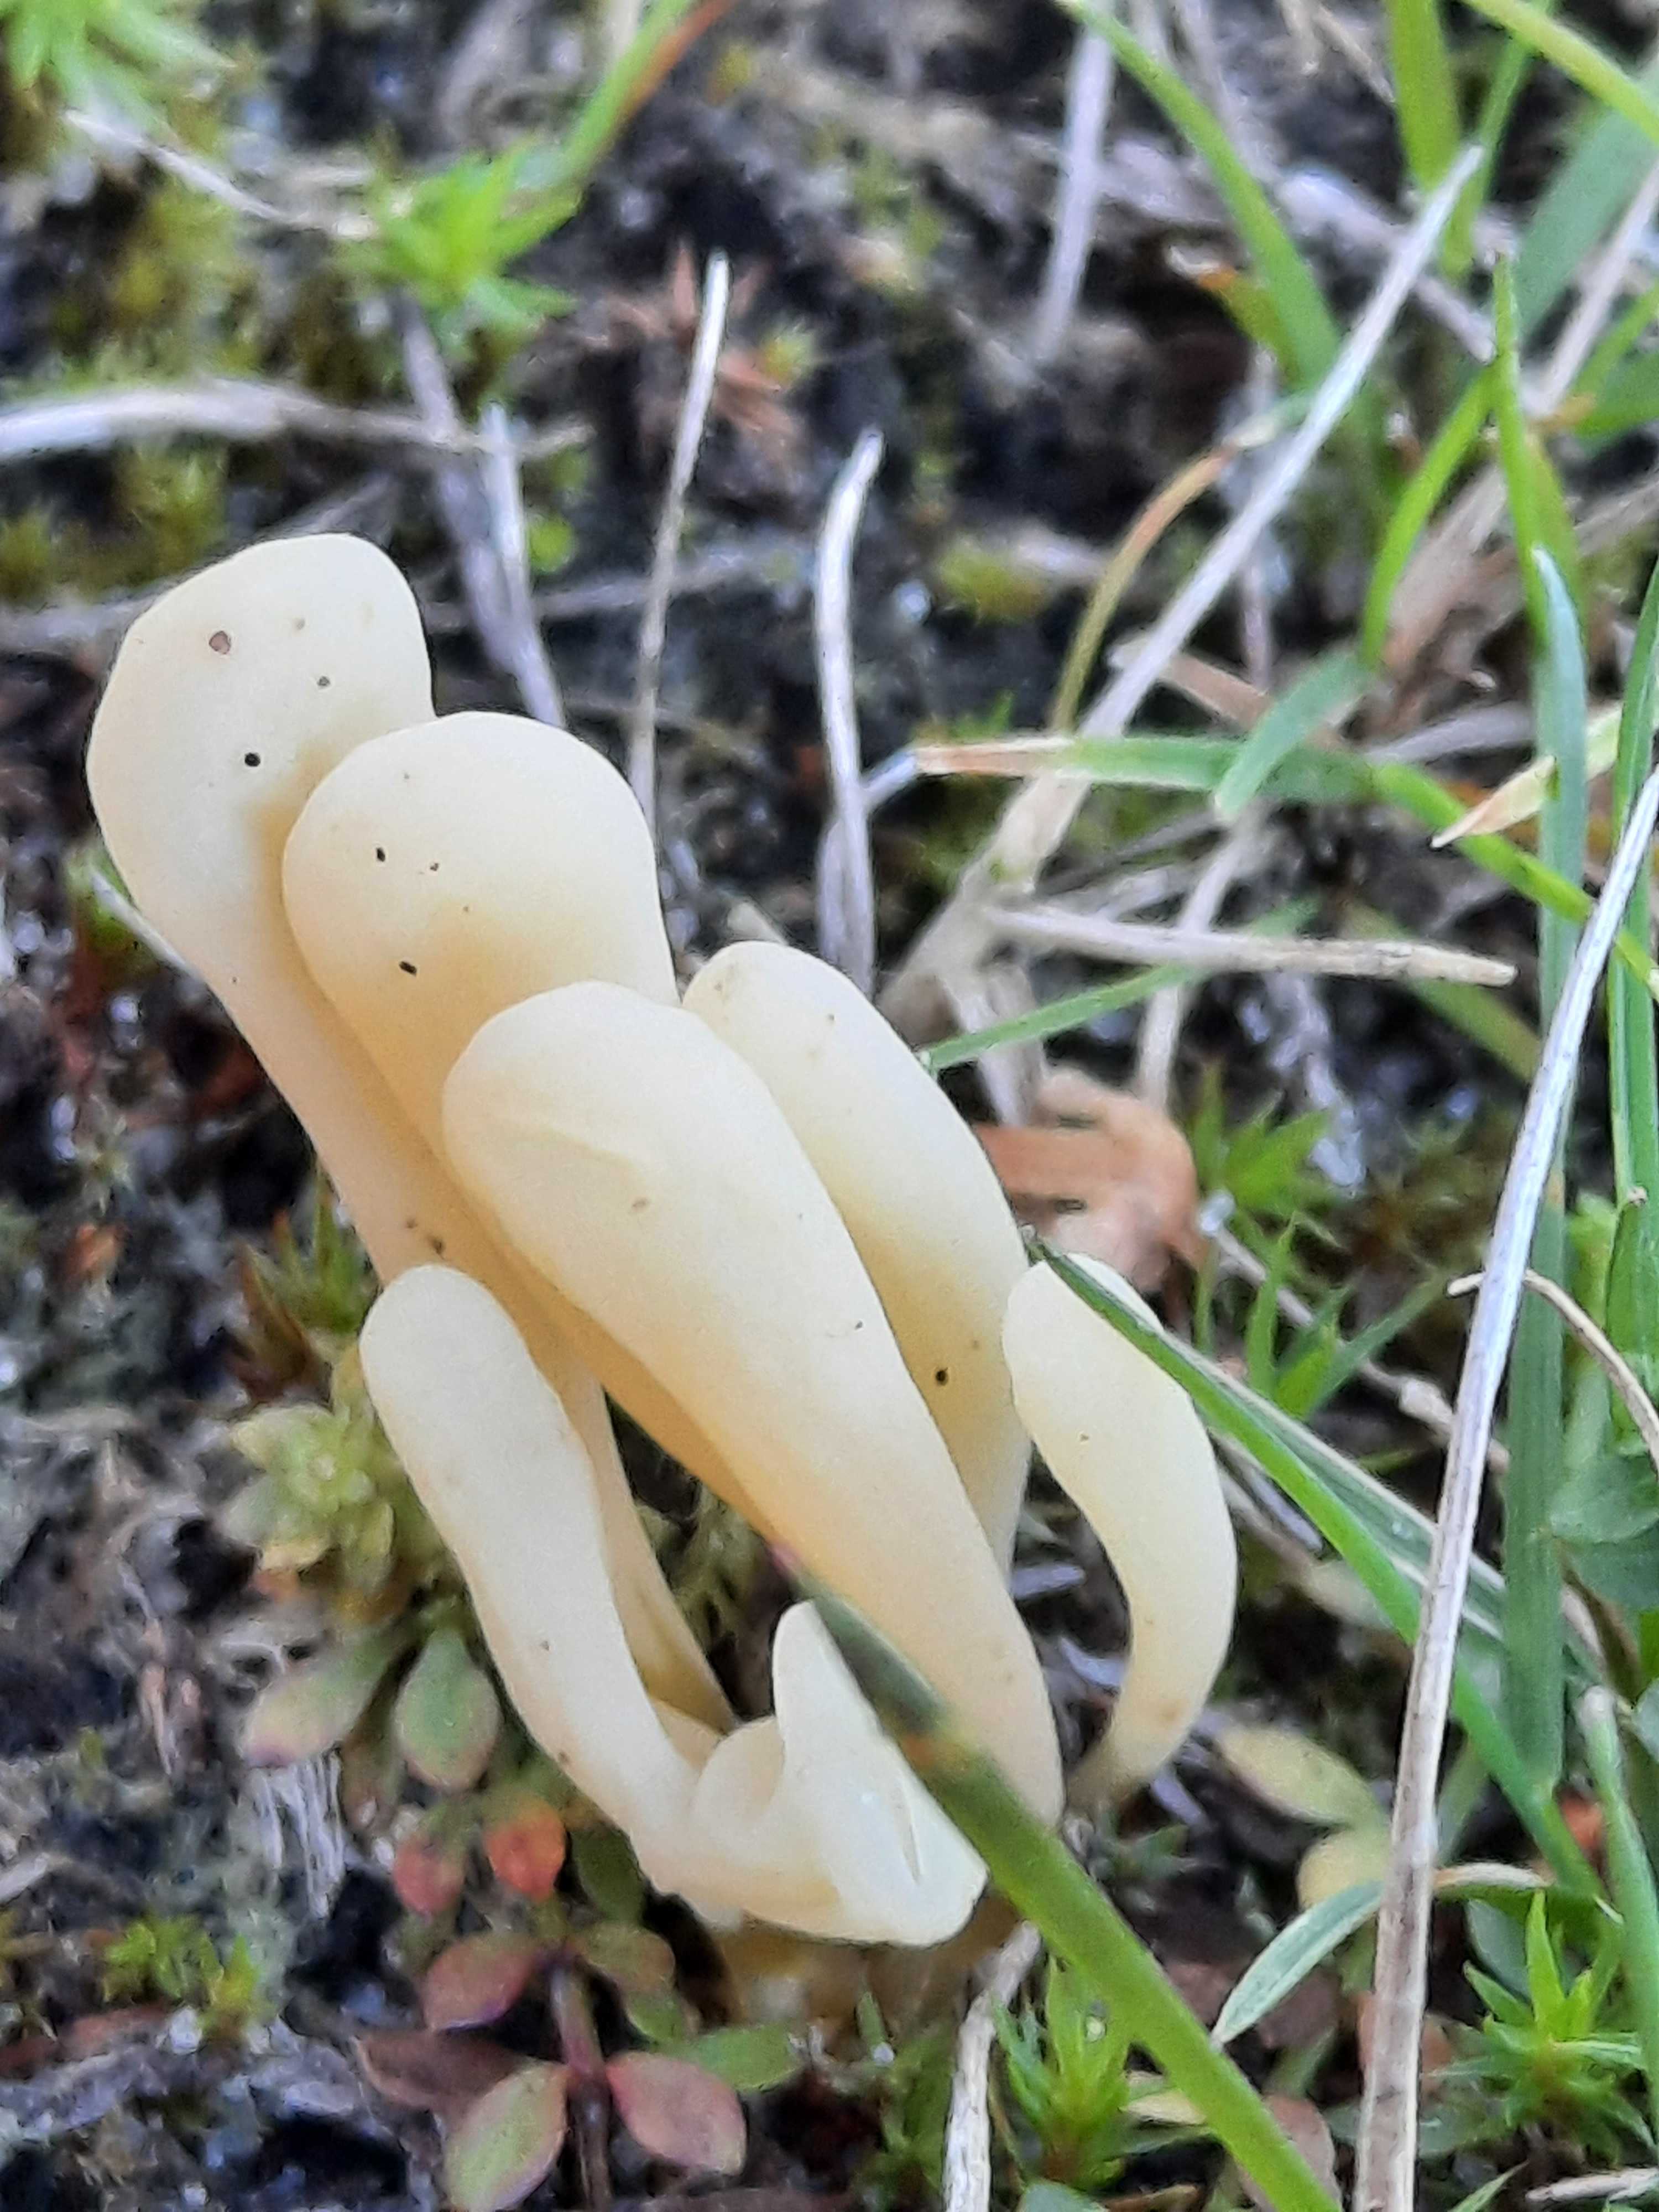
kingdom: Fungi
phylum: Basidiomycota
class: Agaricomycetes
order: Agaricales
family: Clavariaceae
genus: Clavaria
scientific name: Clavaria argillacea
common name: lerfarvet køllesvamp
